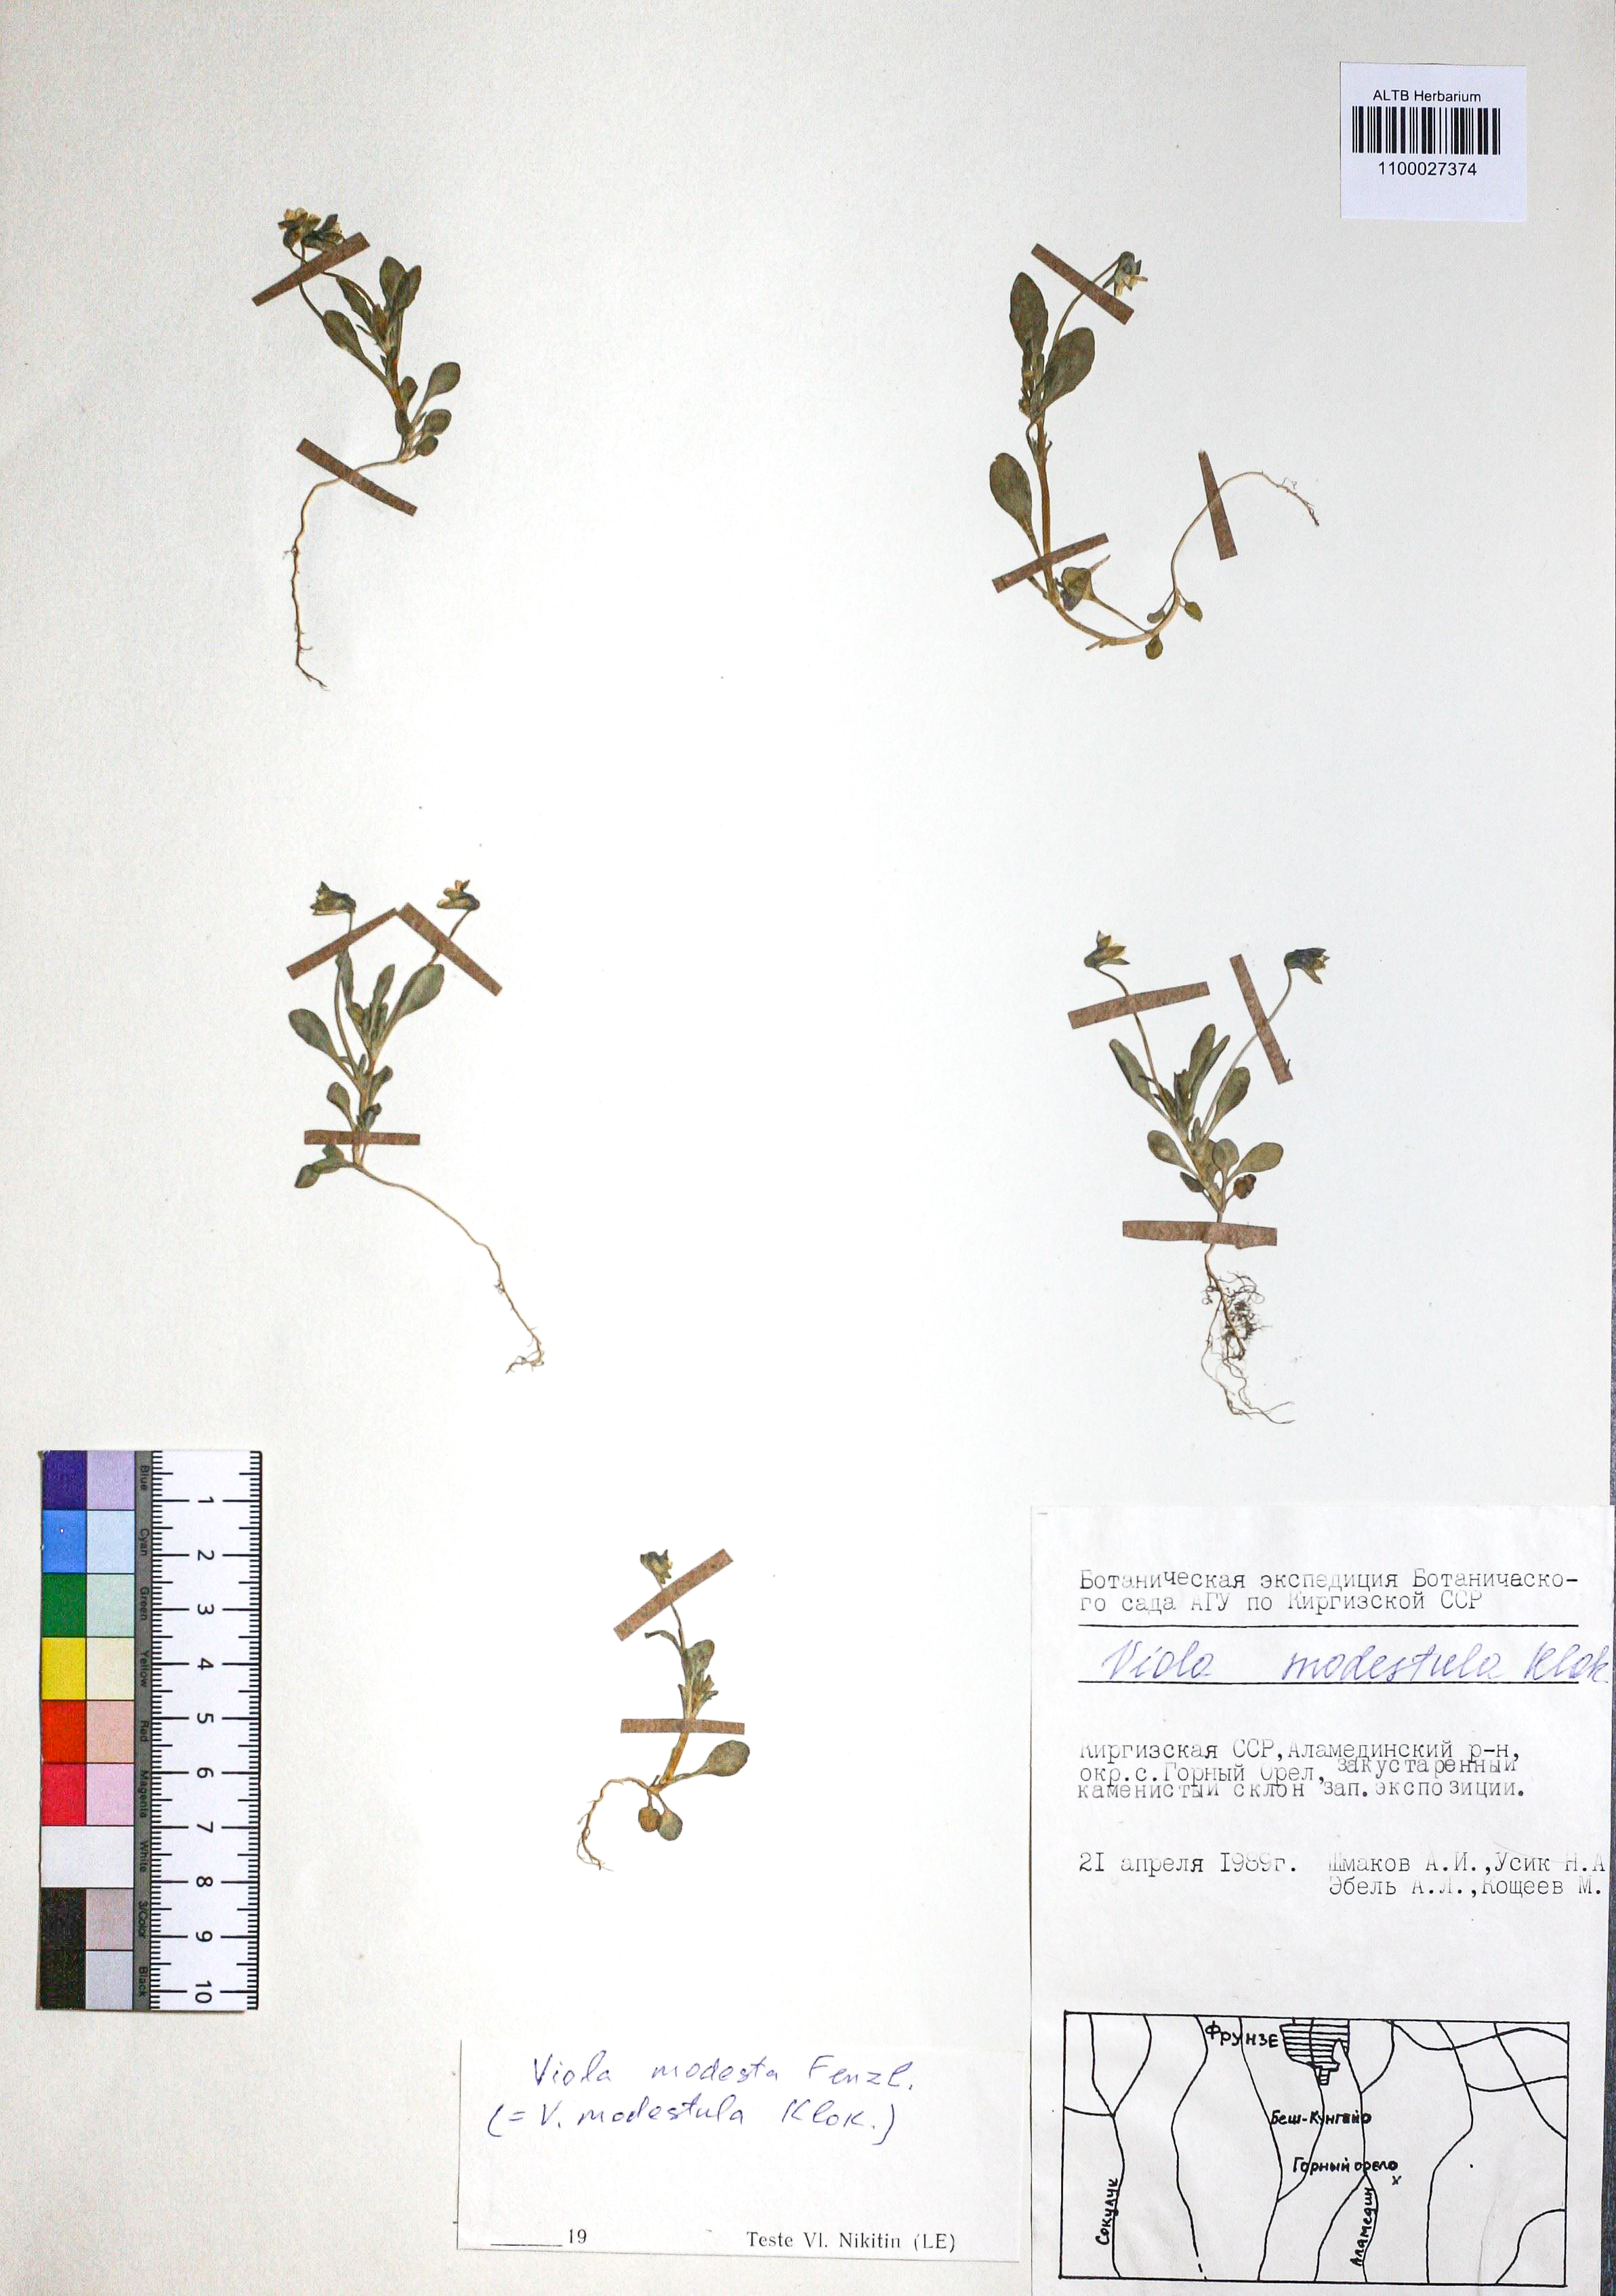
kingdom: Plantae
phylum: Tracheophyta
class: Magnoliopsida
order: Malpighiales
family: Violaceae
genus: Viola
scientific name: Viola modesta
